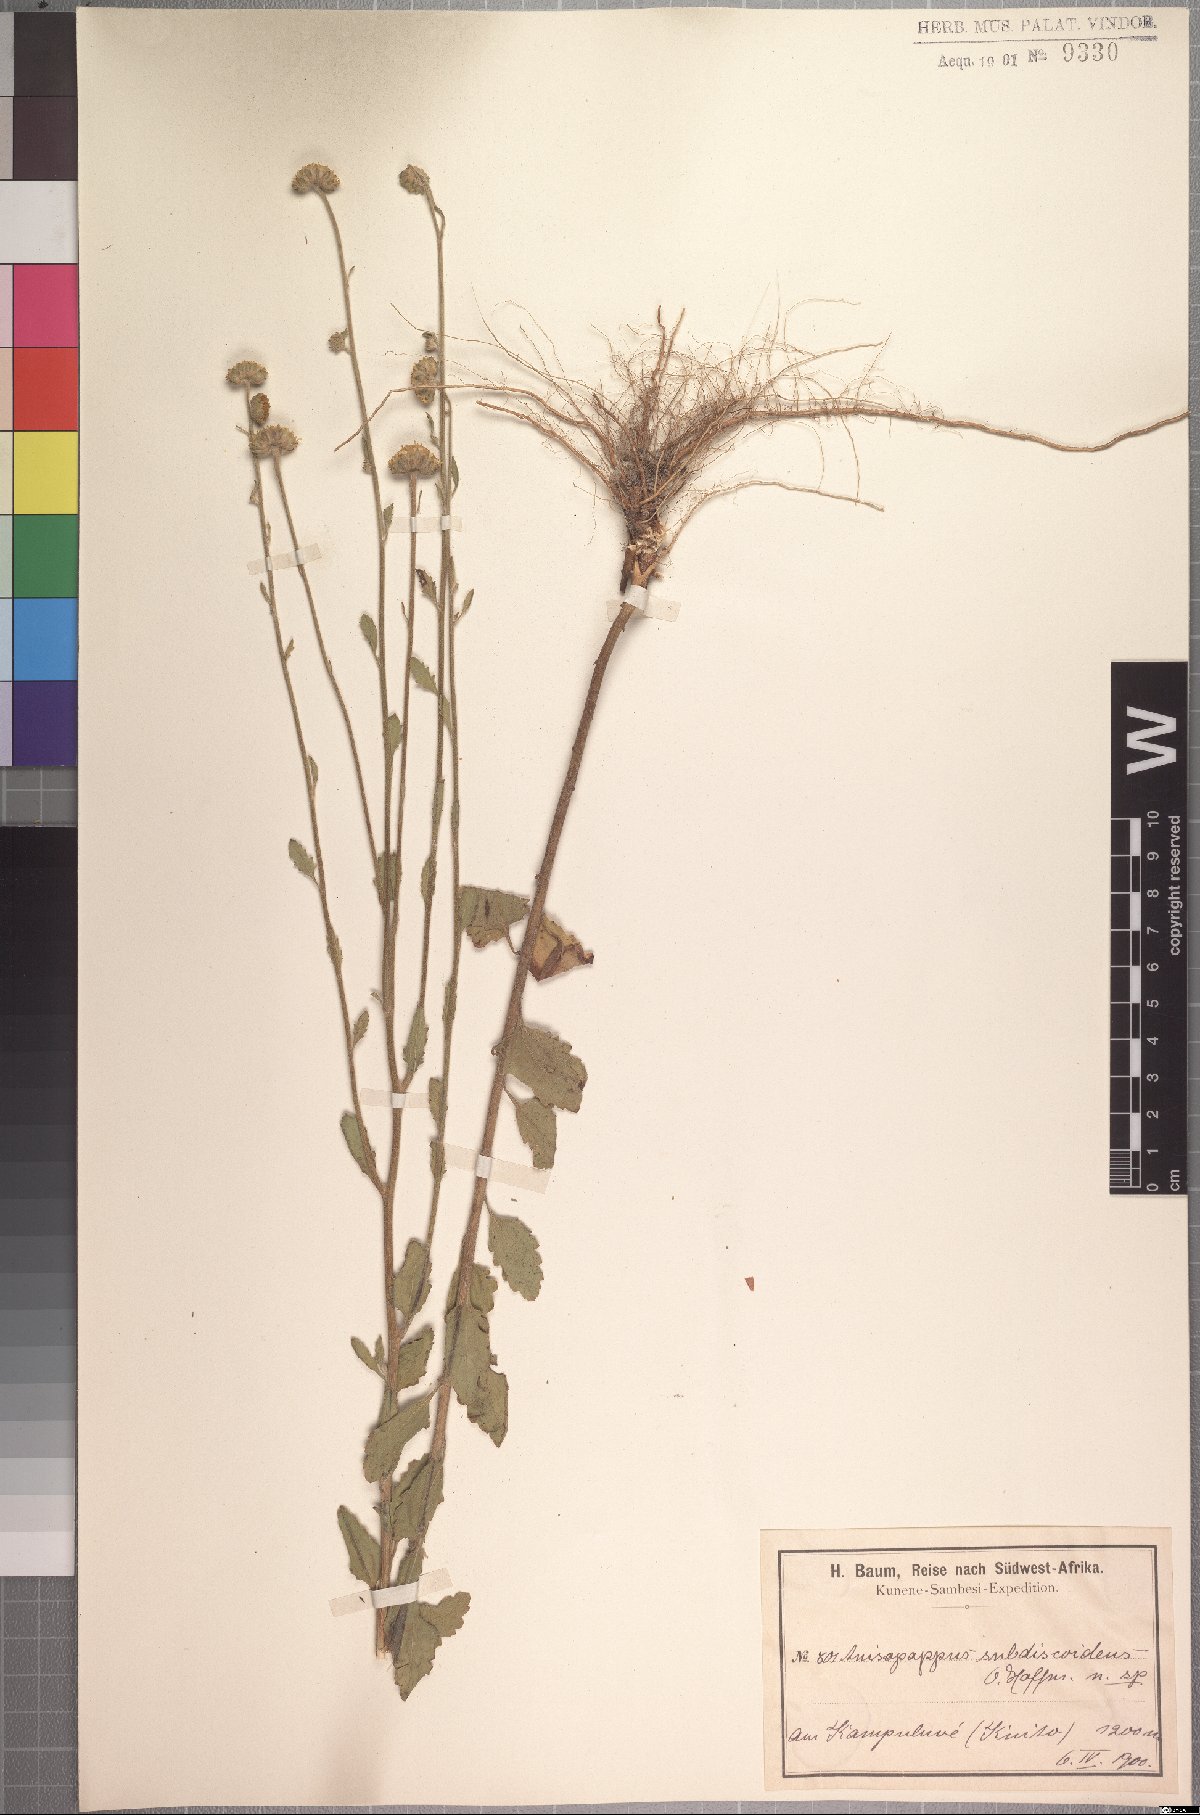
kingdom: Plantae
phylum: Tracheophyta
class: Magnoliopsida
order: Asterales
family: Asteraceae
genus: Anisopappus
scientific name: Anisopappus africanus
